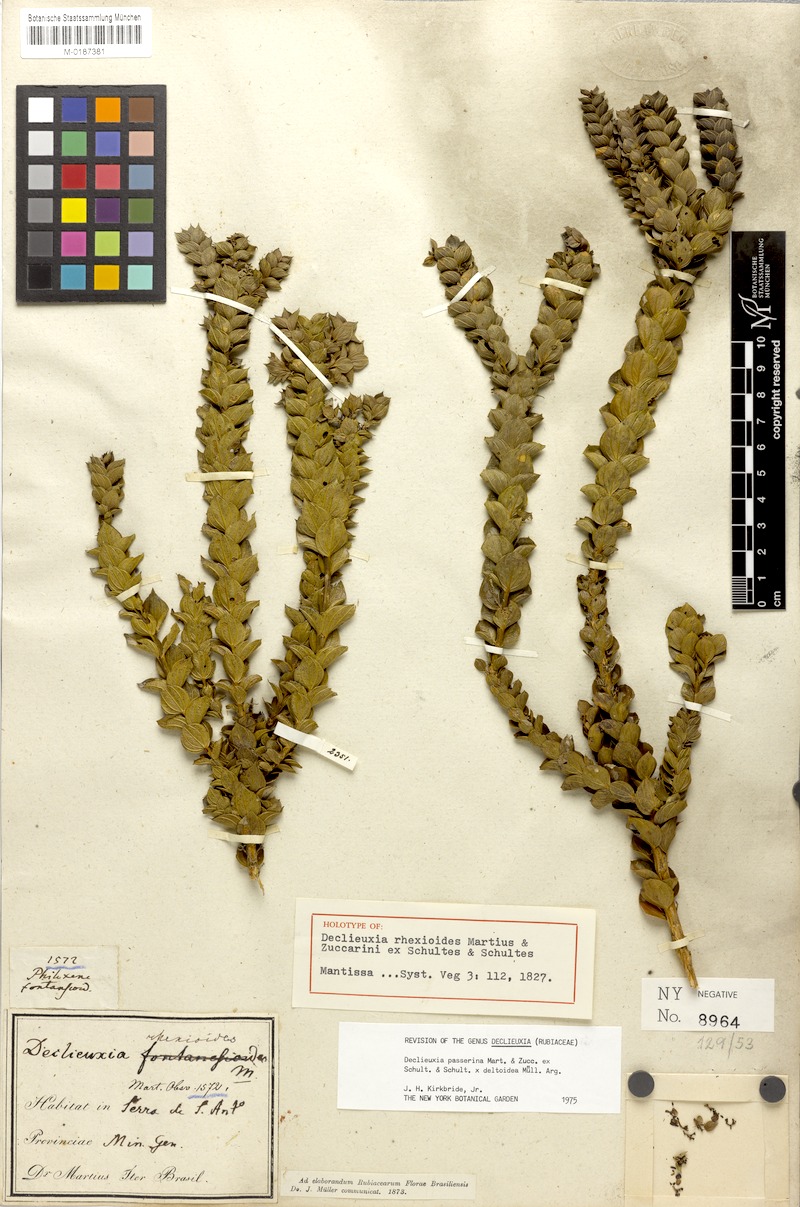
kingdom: Plantae
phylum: Tracheophyta
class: Magnoliopsida
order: Gentianales
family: Rubiaceae
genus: Declieuxia
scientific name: Declieuxia rhexioides
